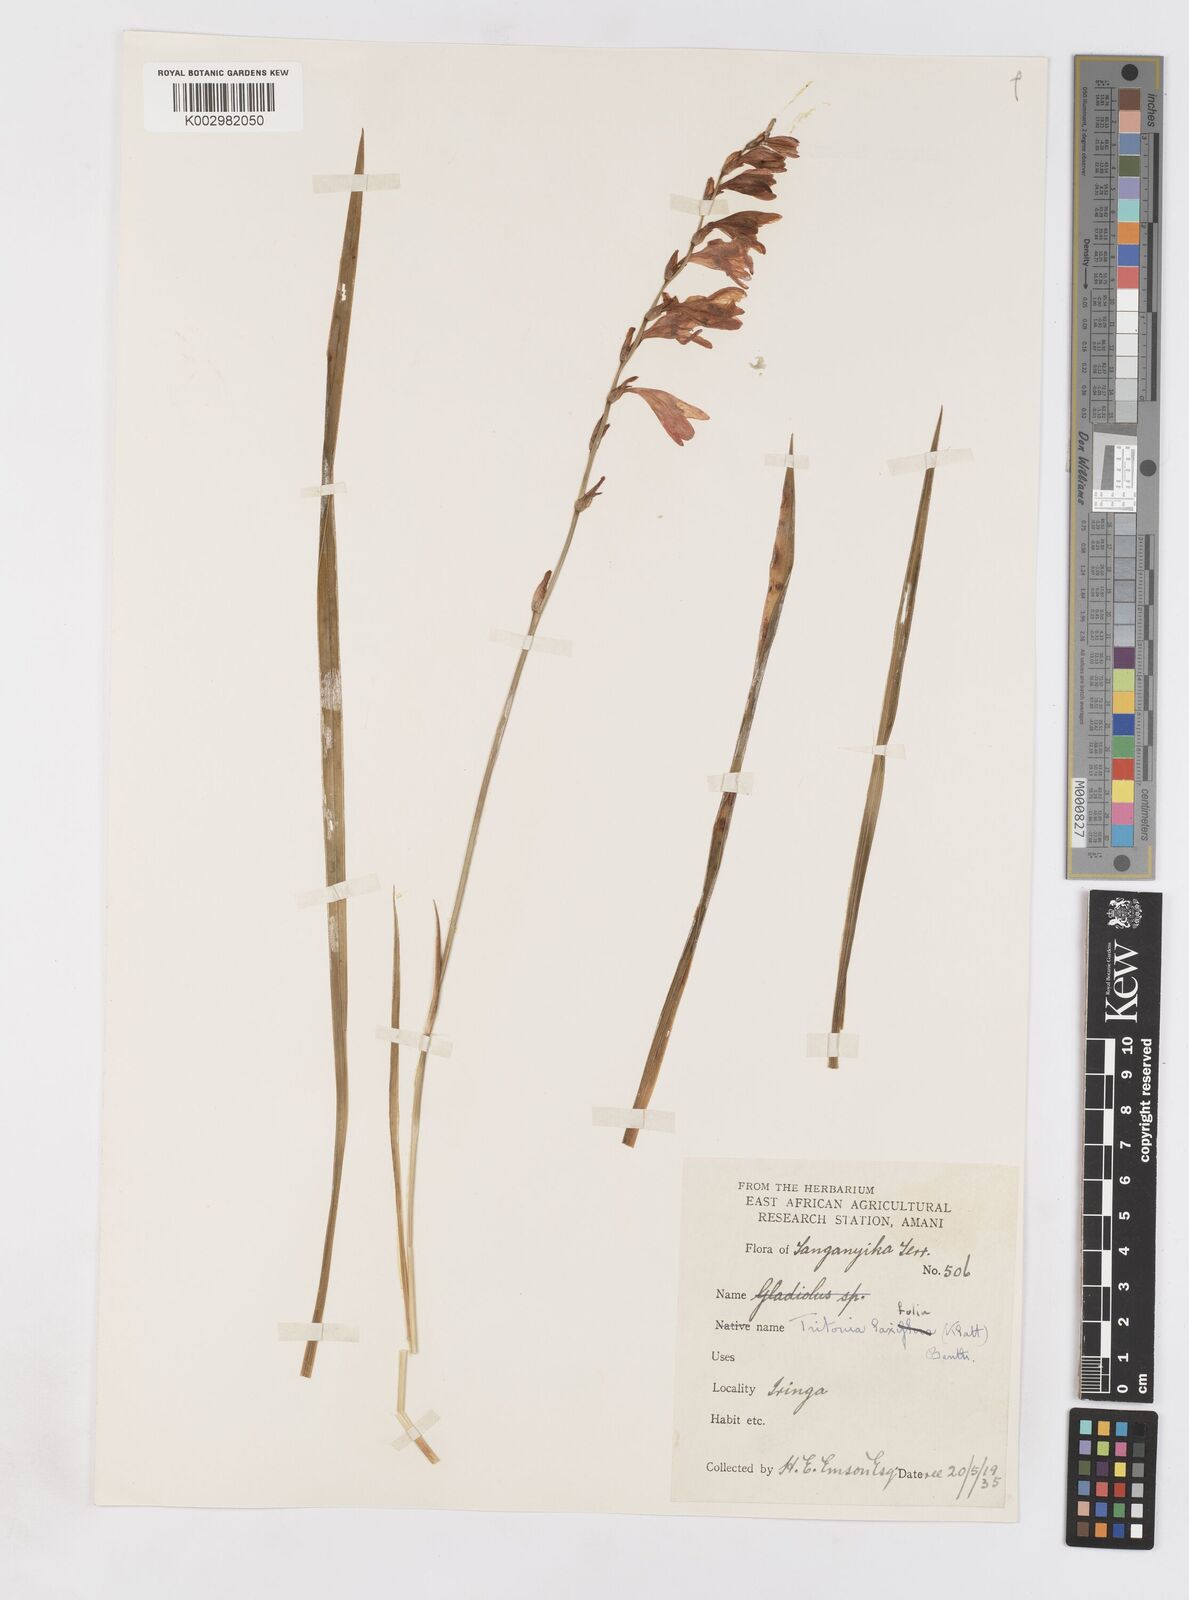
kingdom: Plantae
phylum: Tracheophyta
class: Liliopsida
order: Asparagales
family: Iridaceae
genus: Tritonia
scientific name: Tritonia laxifolia
